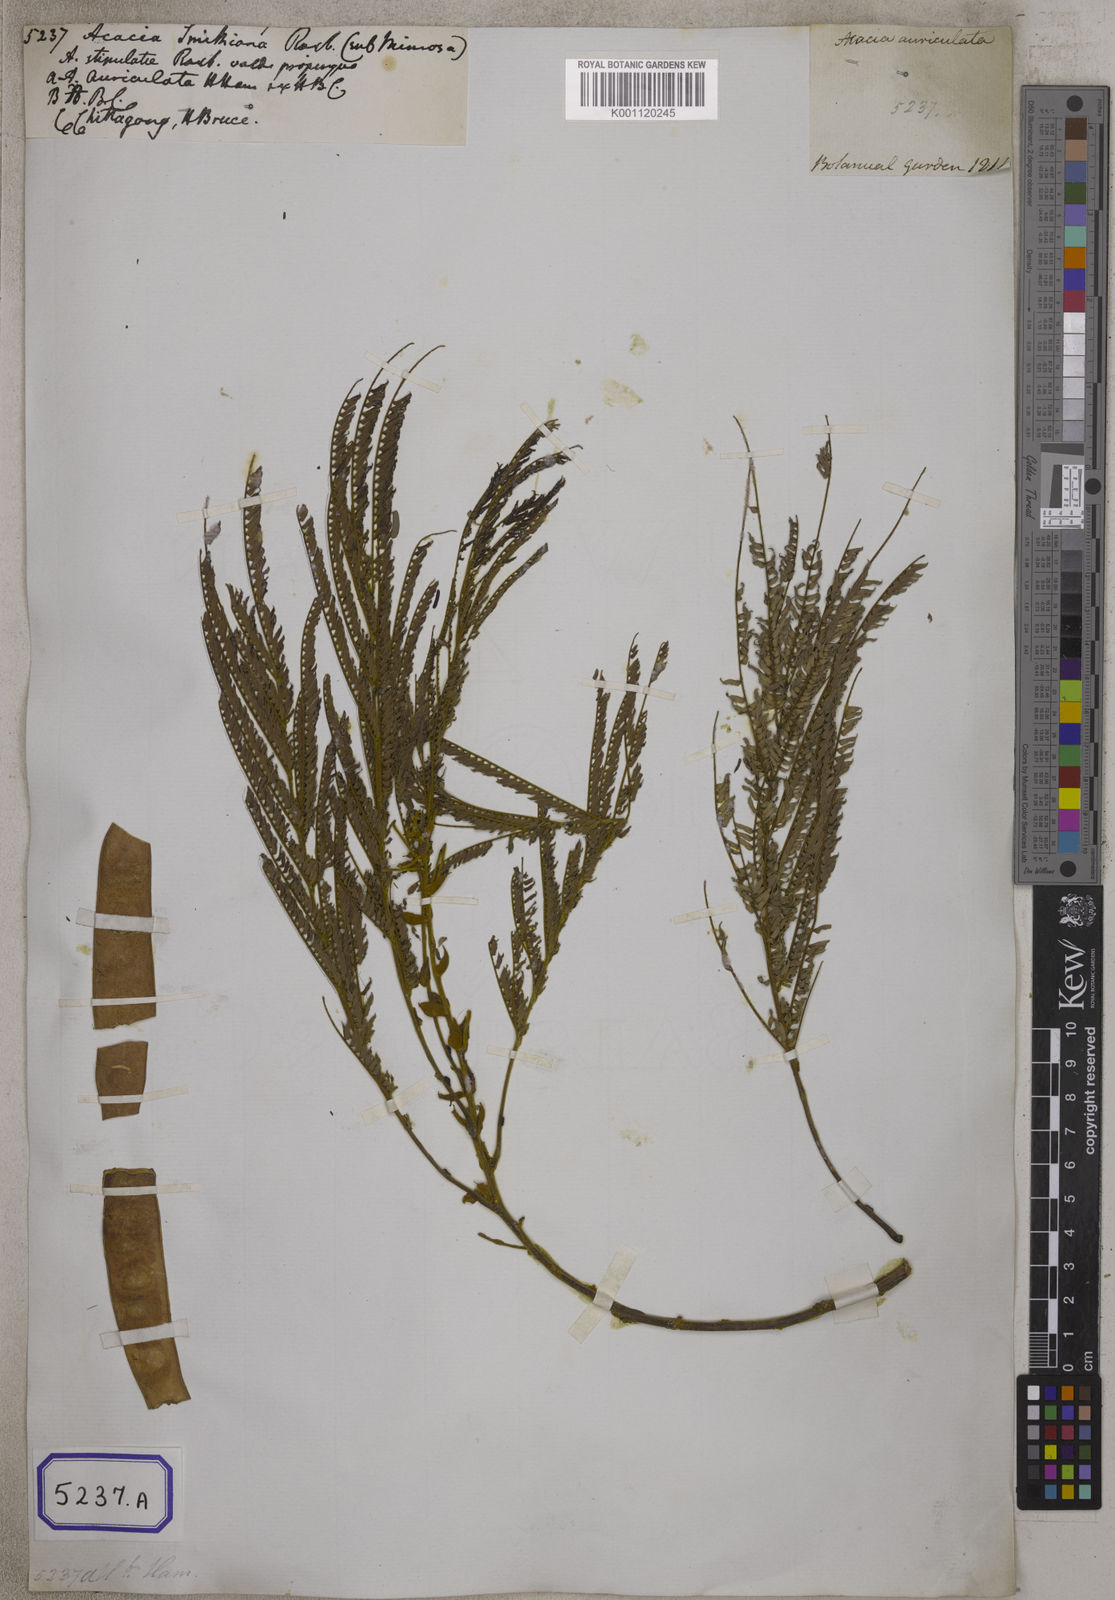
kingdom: Plantae
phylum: Tracheophyta
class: Magnoliopsida
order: Fabales
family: Fabaceae
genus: Albizia
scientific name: Albizia chinensis
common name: Chinese albizia
